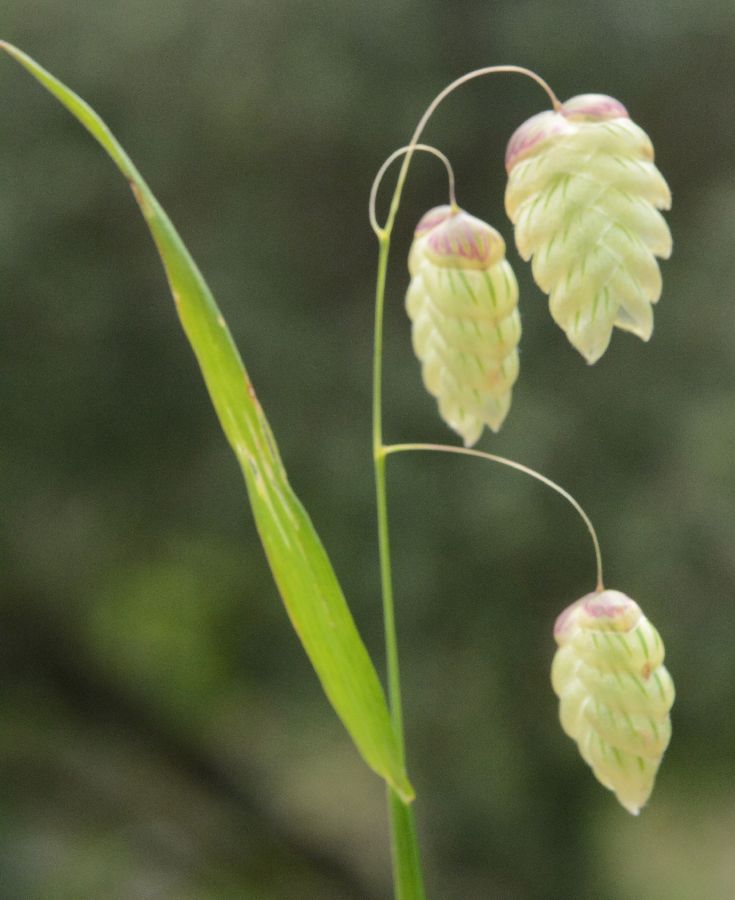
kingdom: Plantae
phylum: Tracheophyta
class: Liliopsida
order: Poales
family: Poaceae
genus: Briza
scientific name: Briza maxima
